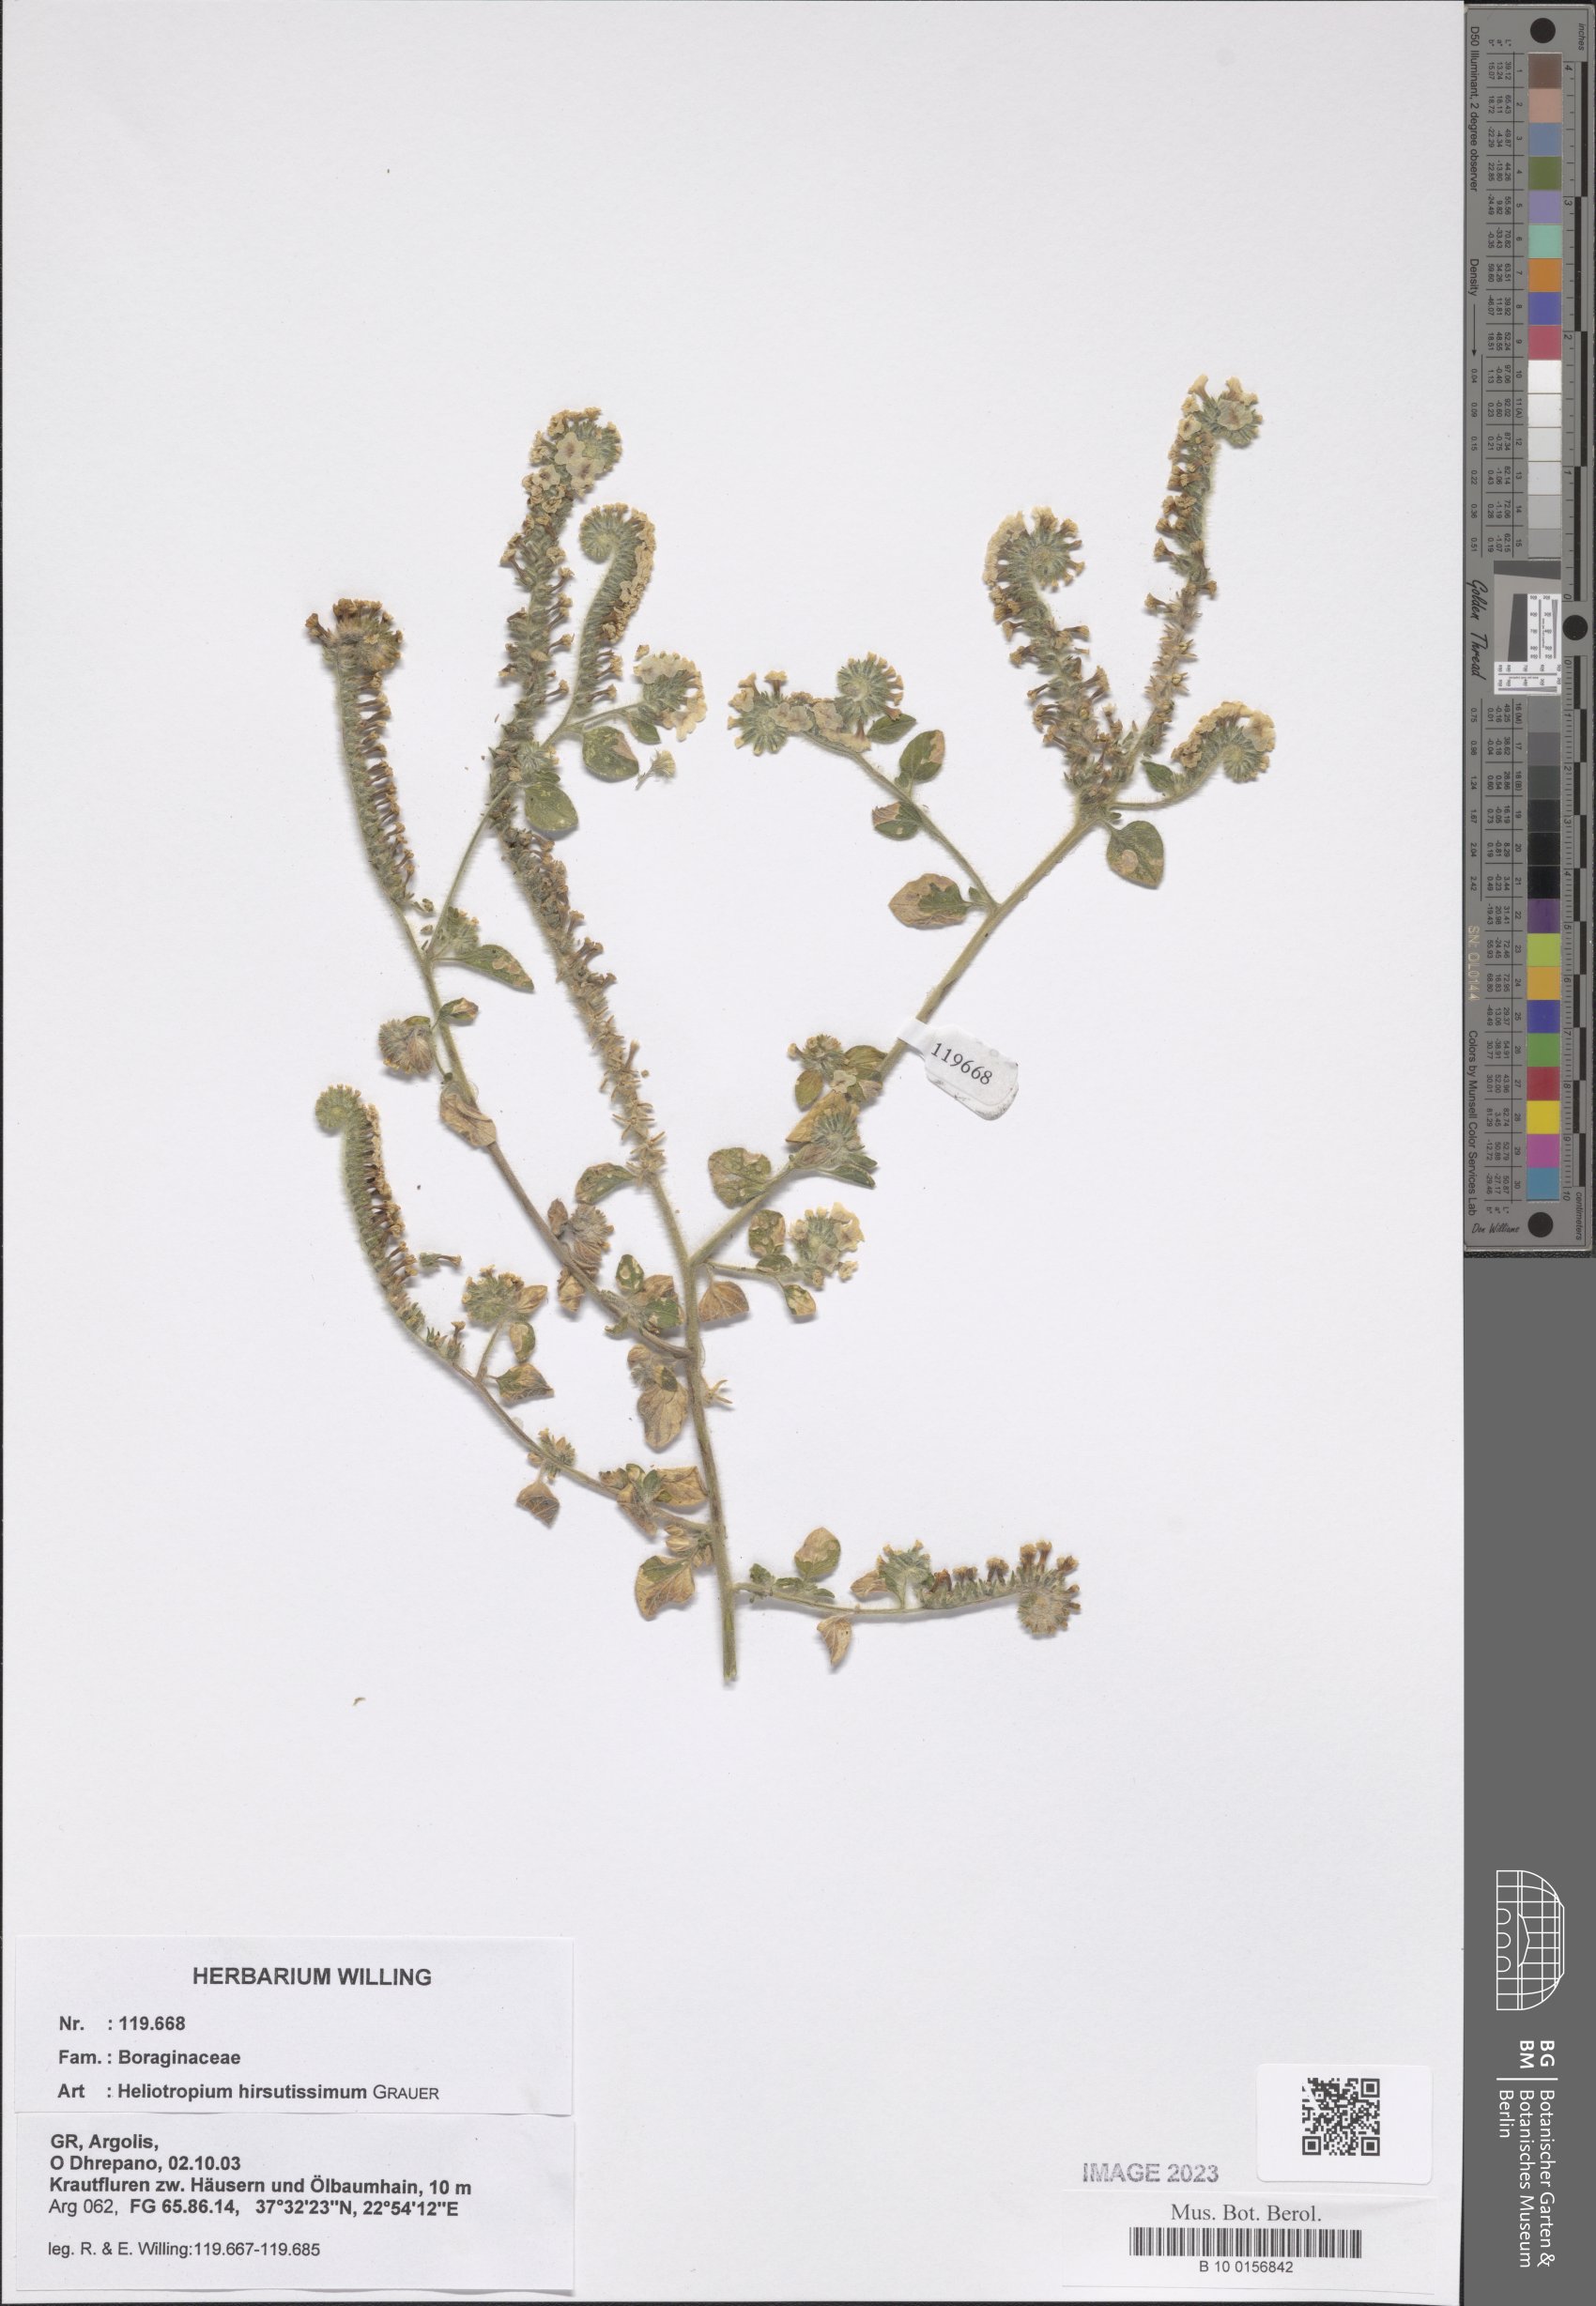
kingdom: Plantae
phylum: Tracheophyta
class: Magnoliopsida
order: Boraginales
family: Heliotropiaceae
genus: Heliotropium
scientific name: Heliotropium hirsutissimum
